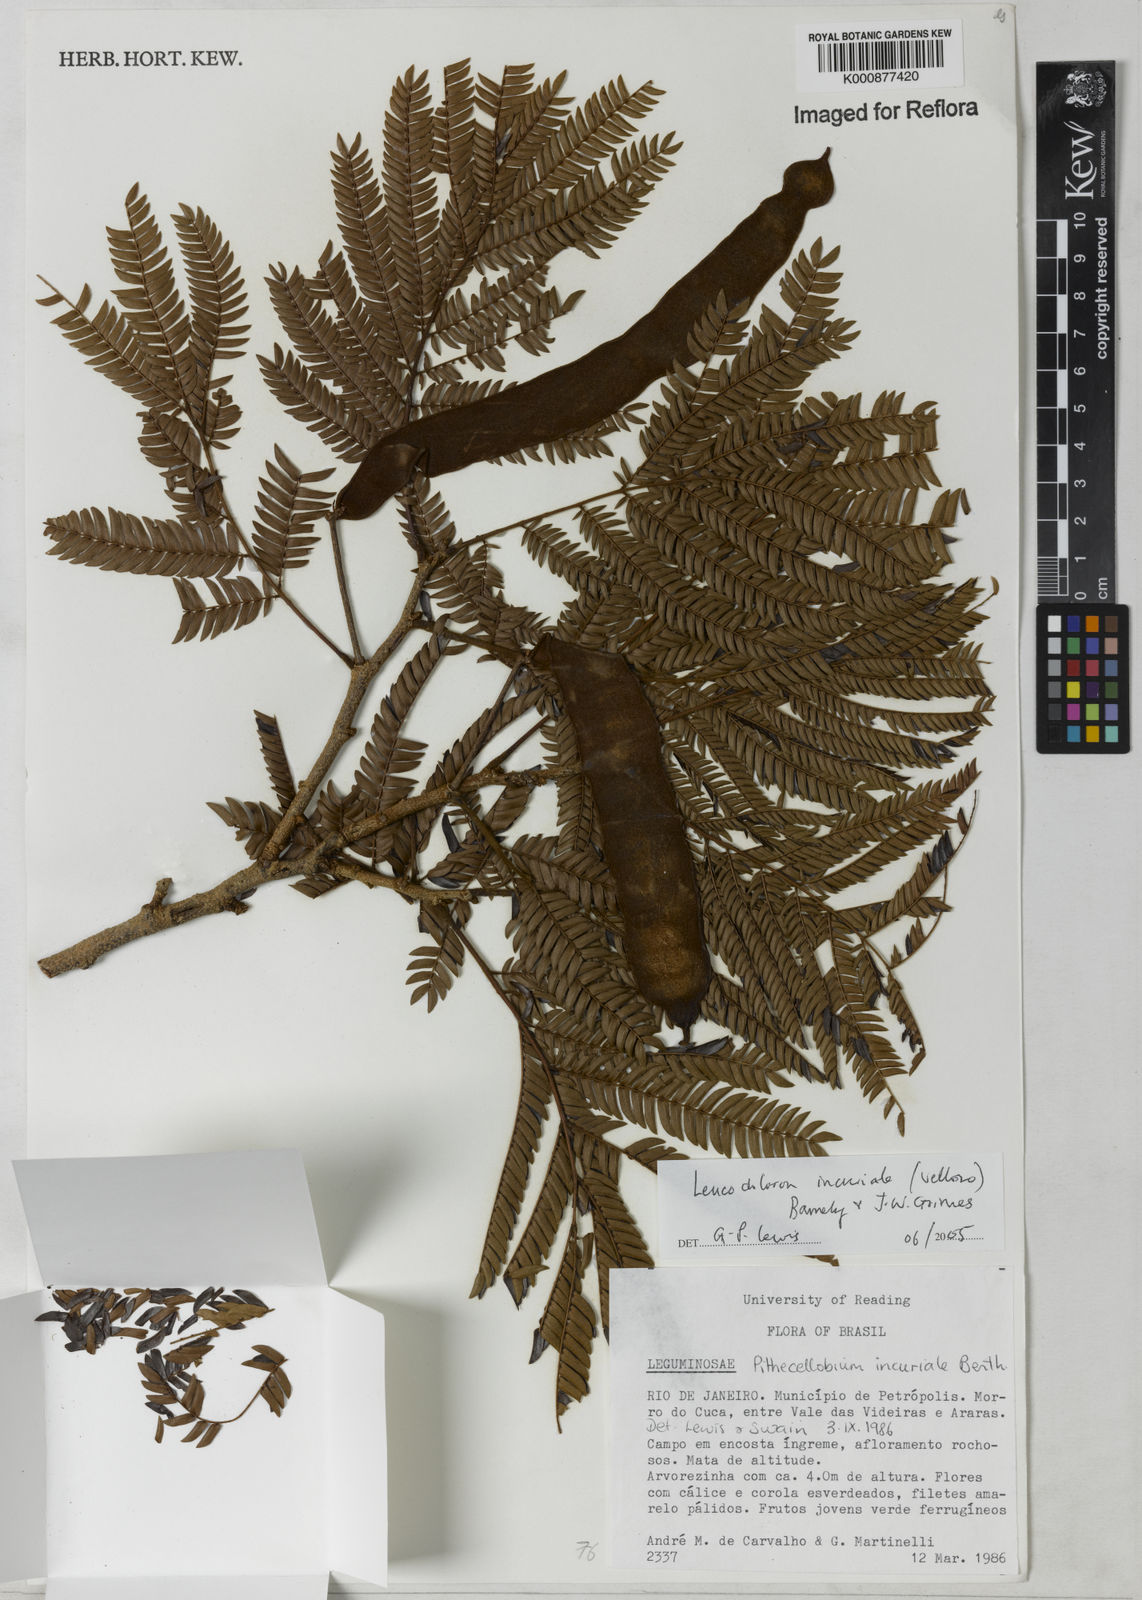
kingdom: Plantae
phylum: Tracheophyta
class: Magnoliopsida
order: Fabales
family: Fabaceae
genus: Leucochloron
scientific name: Leucochloron incuriale
